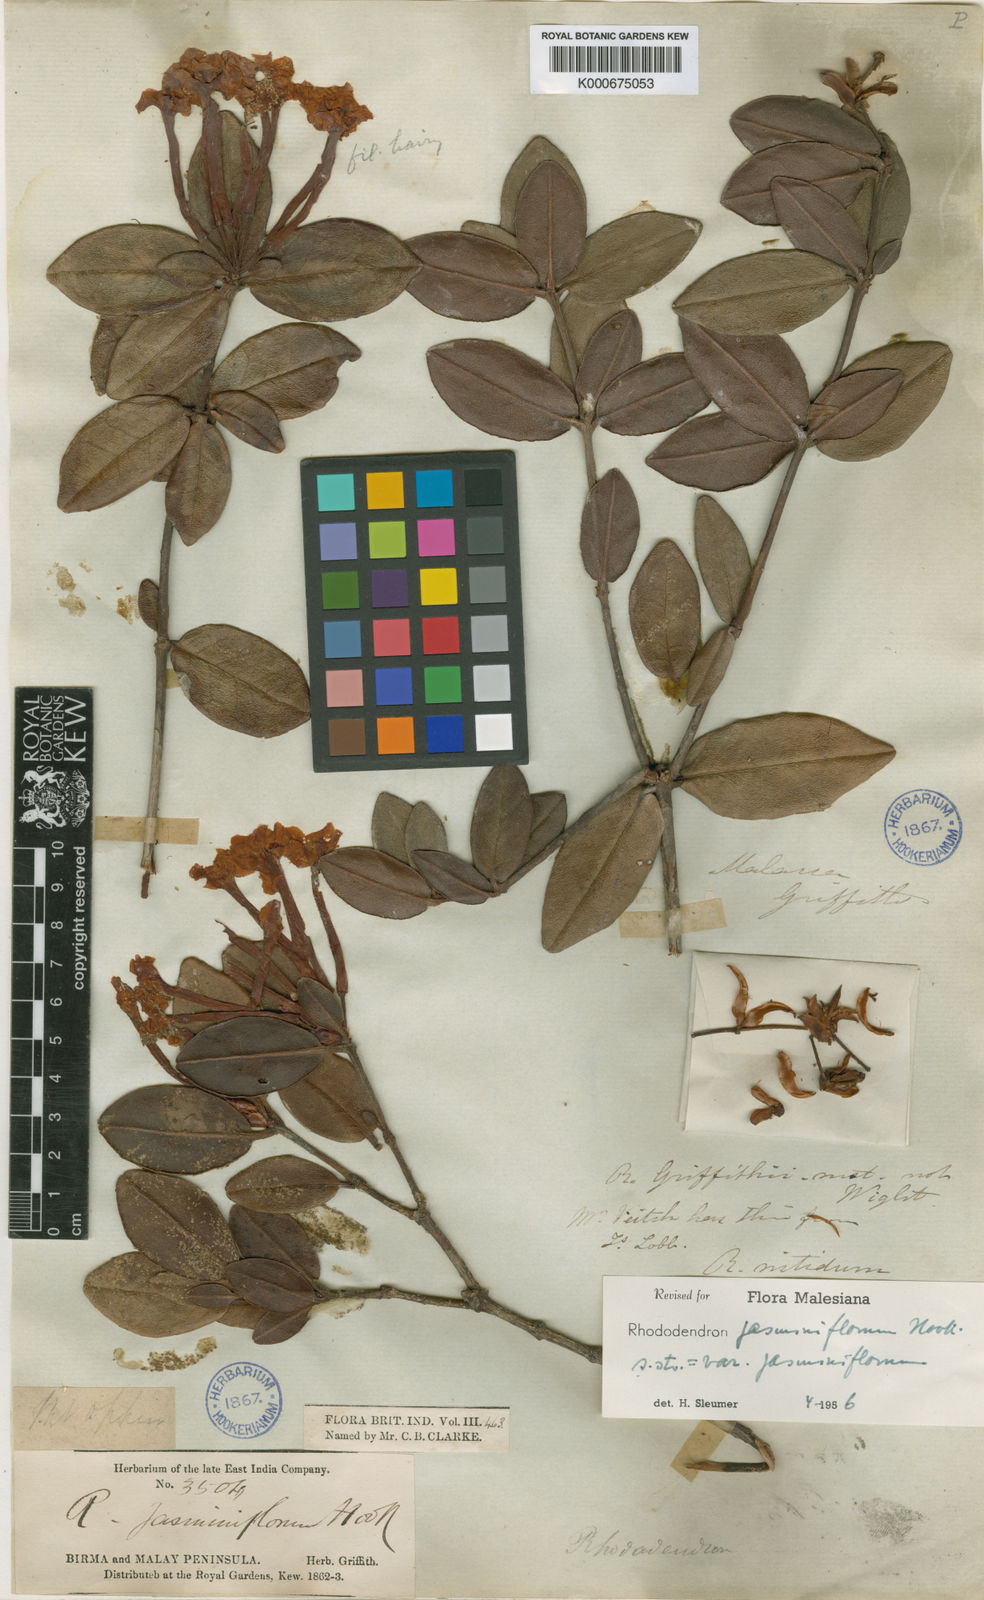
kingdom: Plantae
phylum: Tracheophyta
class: Magnoliopsida
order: Ericales
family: Ericaceae
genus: Rhododendron
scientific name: Rhododendron jasminiflorum
